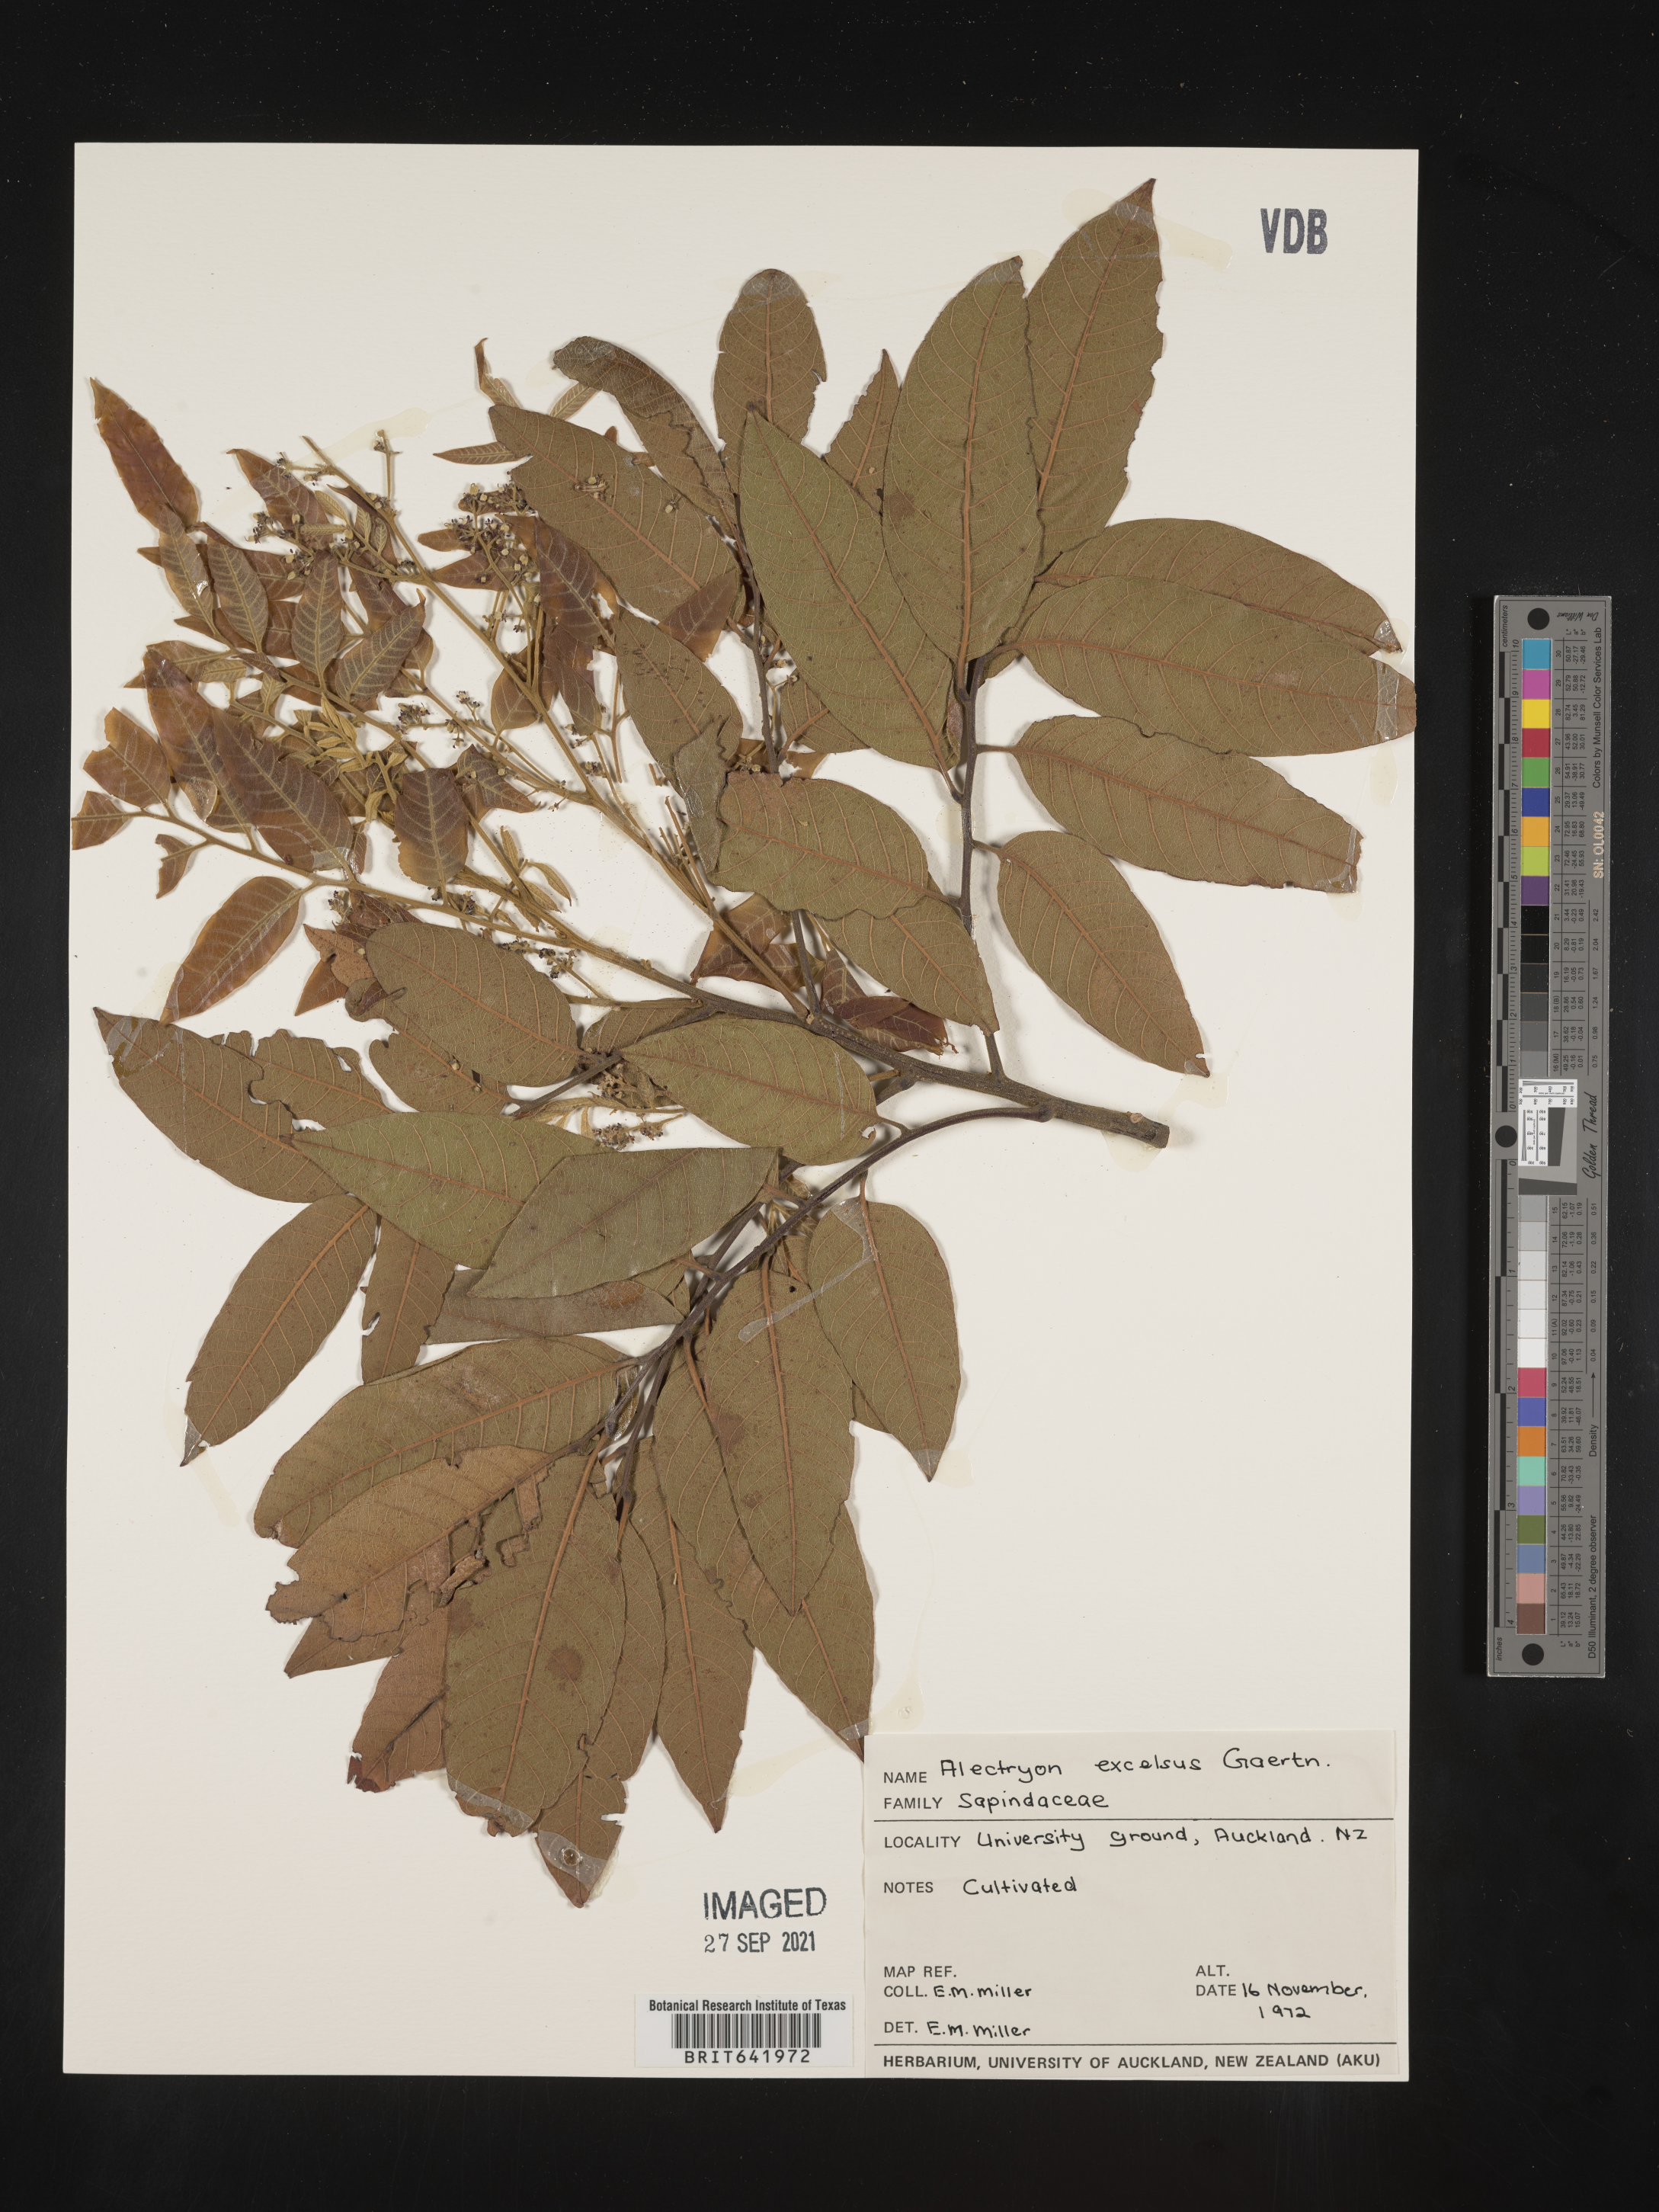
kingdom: Plantae
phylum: Tracheophyta
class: Magnoliopsida
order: Sapindales
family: Sapindaceae
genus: Alectryon
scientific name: Alectryon
